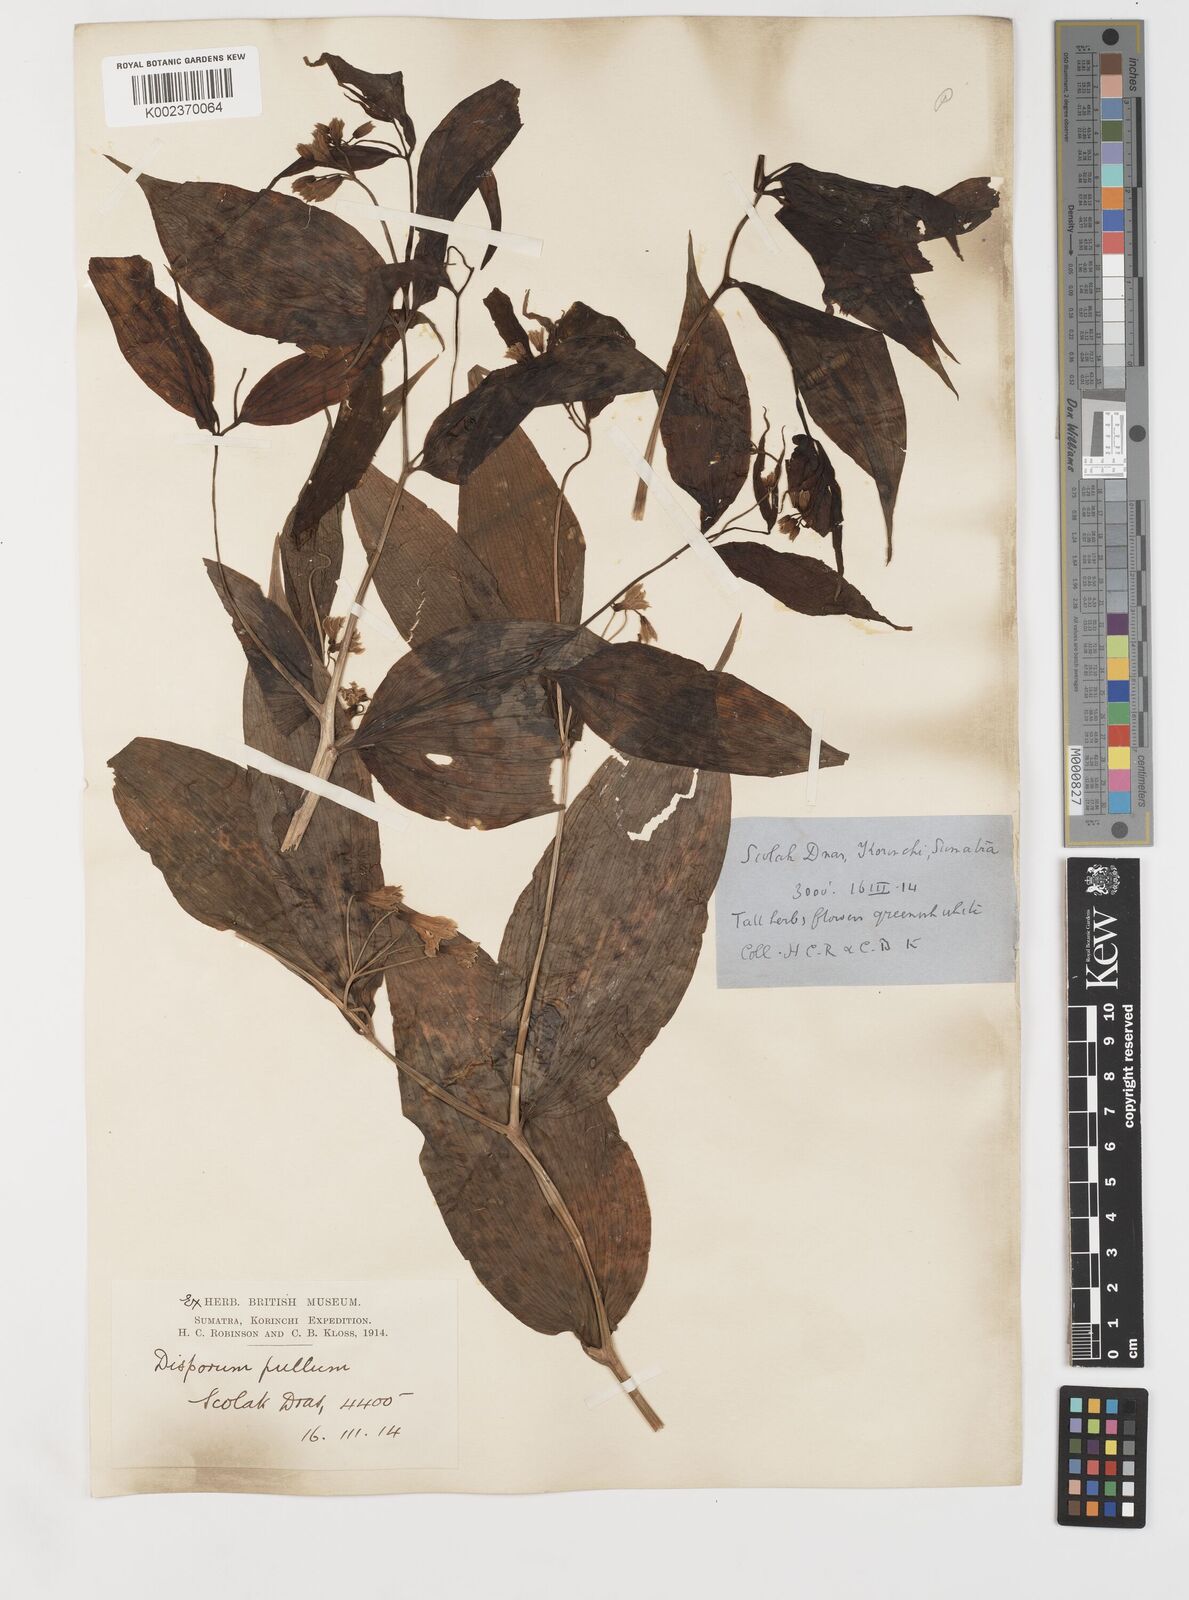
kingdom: Plantae
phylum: Tracheophyta
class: Liliopsida
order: Liliales
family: Colchicaceae
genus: Disporum
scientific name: Disporum cantoniense
